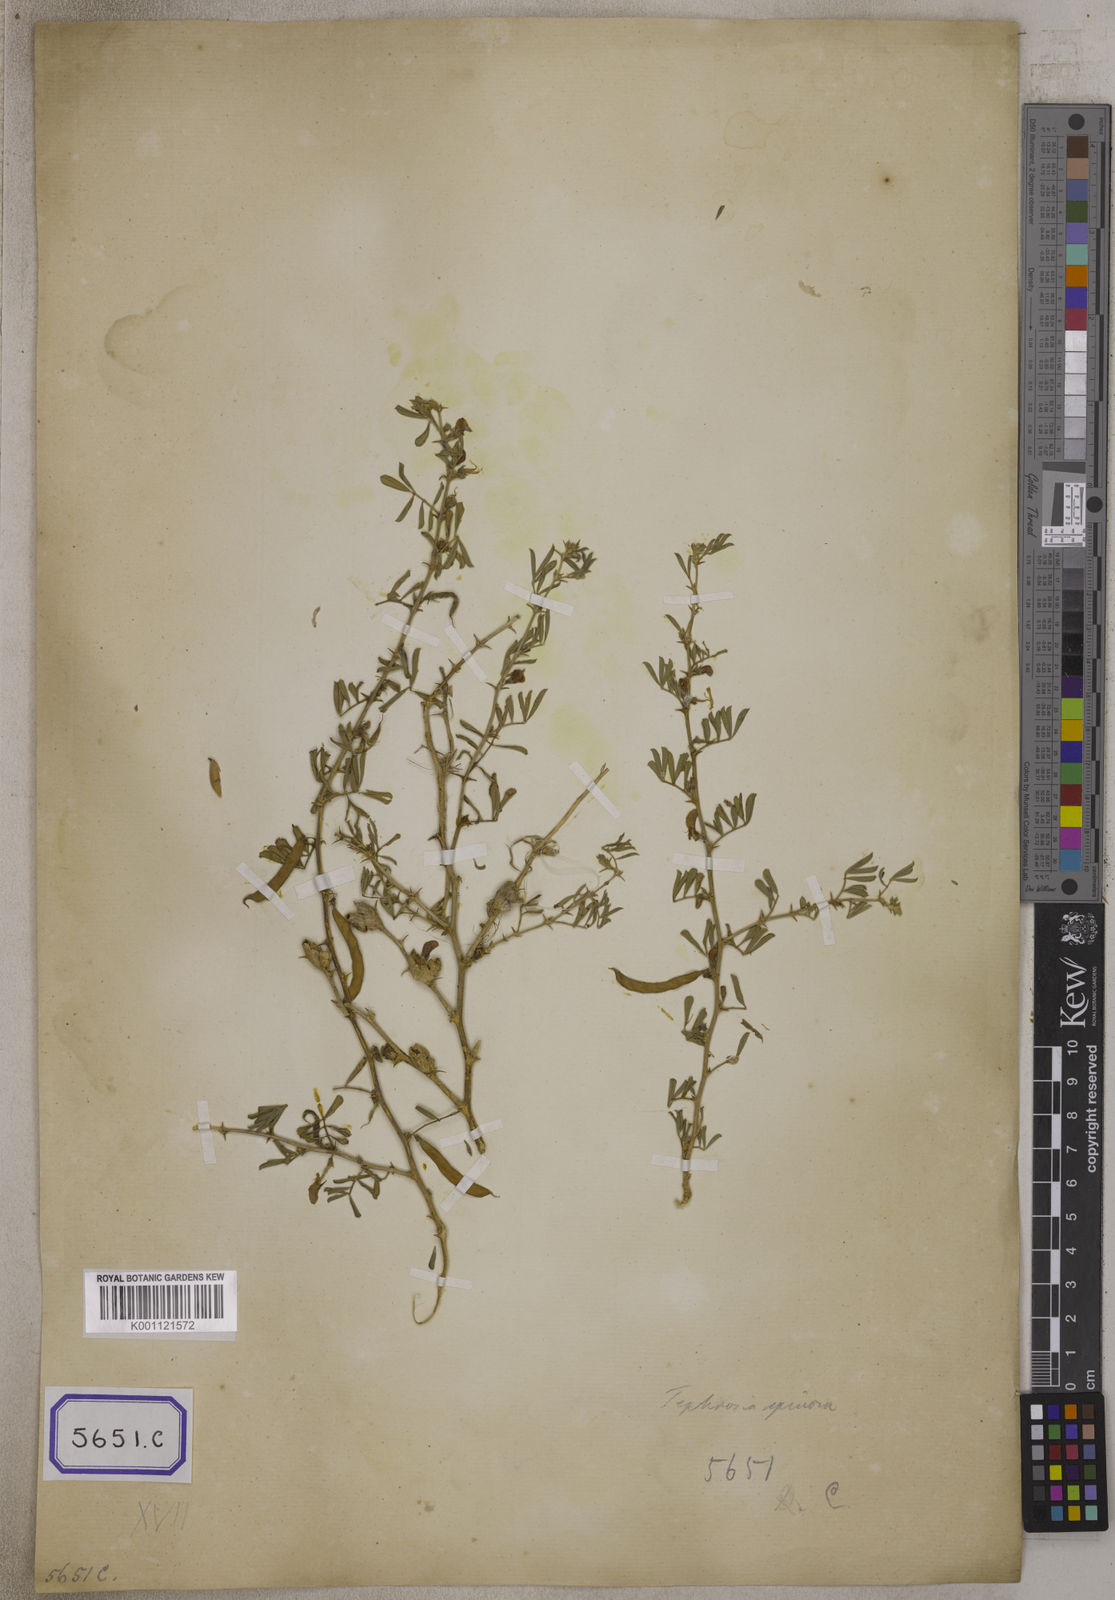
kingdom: Plantae
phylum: Tracheophyta
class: Magnoliopsida
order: Fabales
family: Fabaceae
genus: Galega
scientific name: Galega
